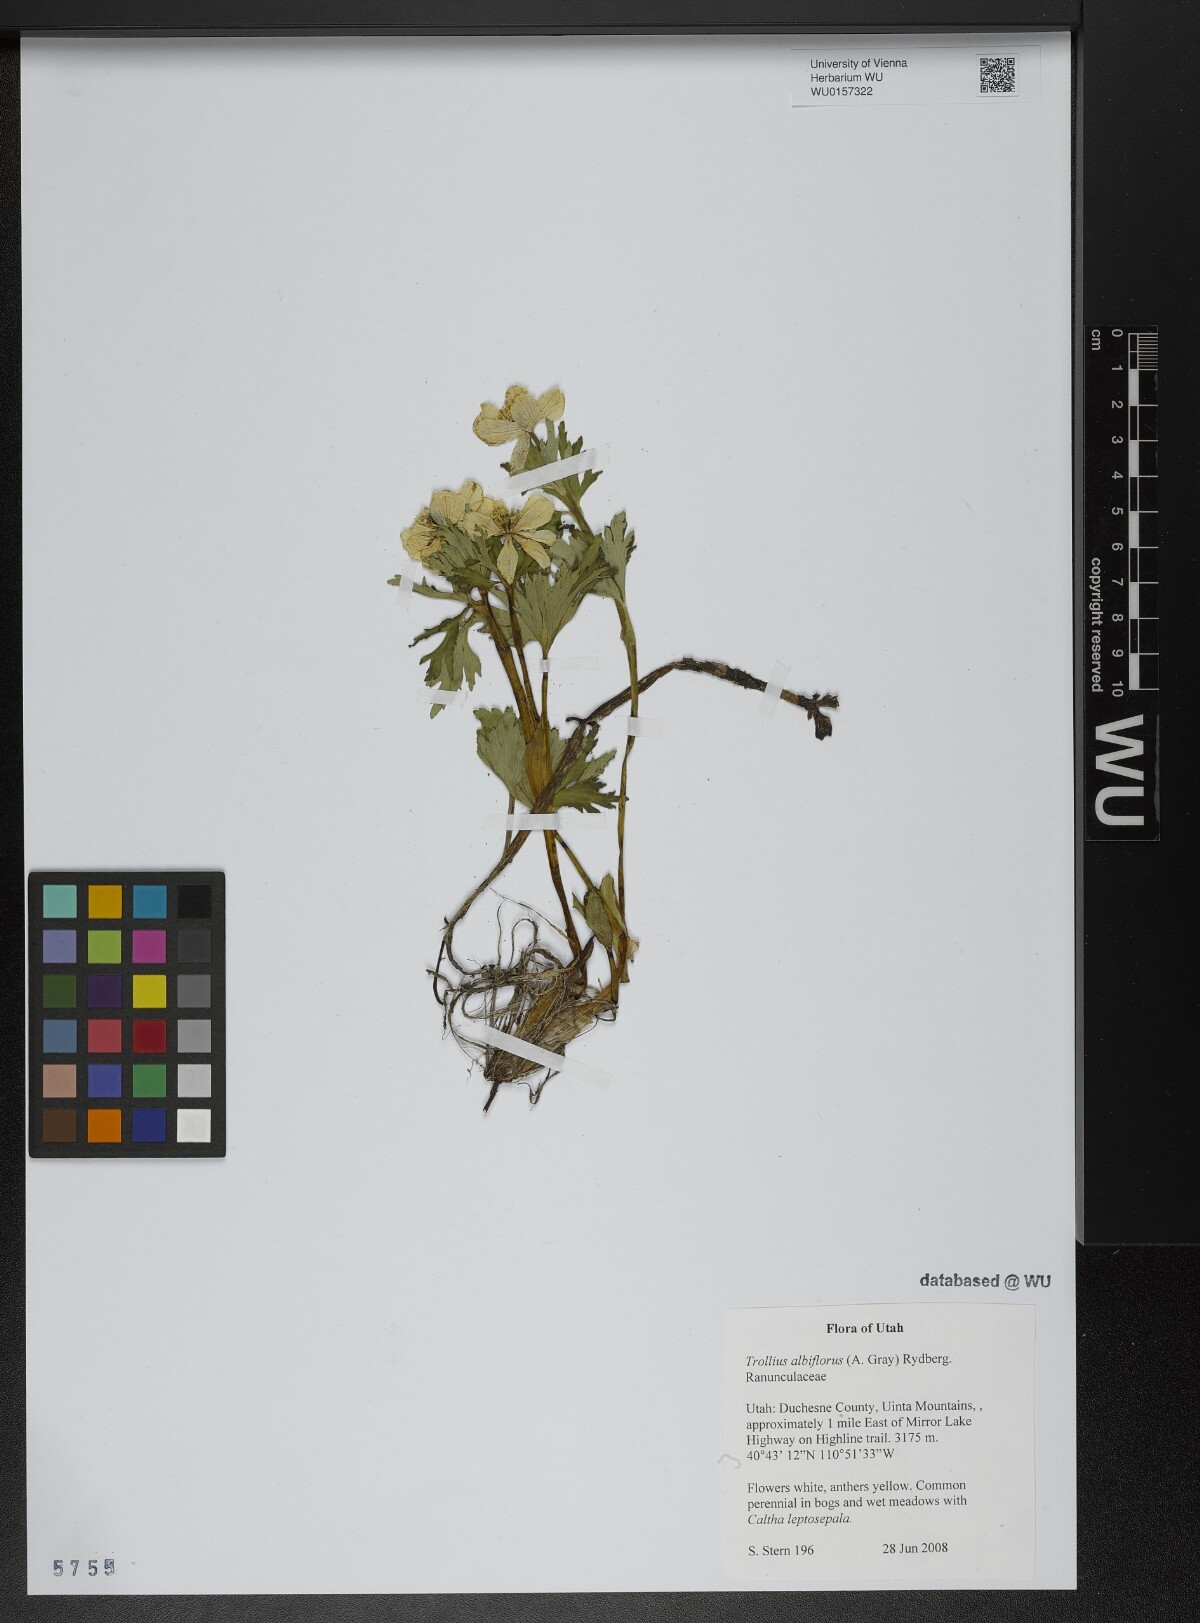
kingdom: Plantae
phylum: Tracheophyta
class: Magnoliopsida
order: Ranunculales
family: Ranunculaceae
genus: Trollius
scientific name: Trollius laxus
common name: American globeflower
